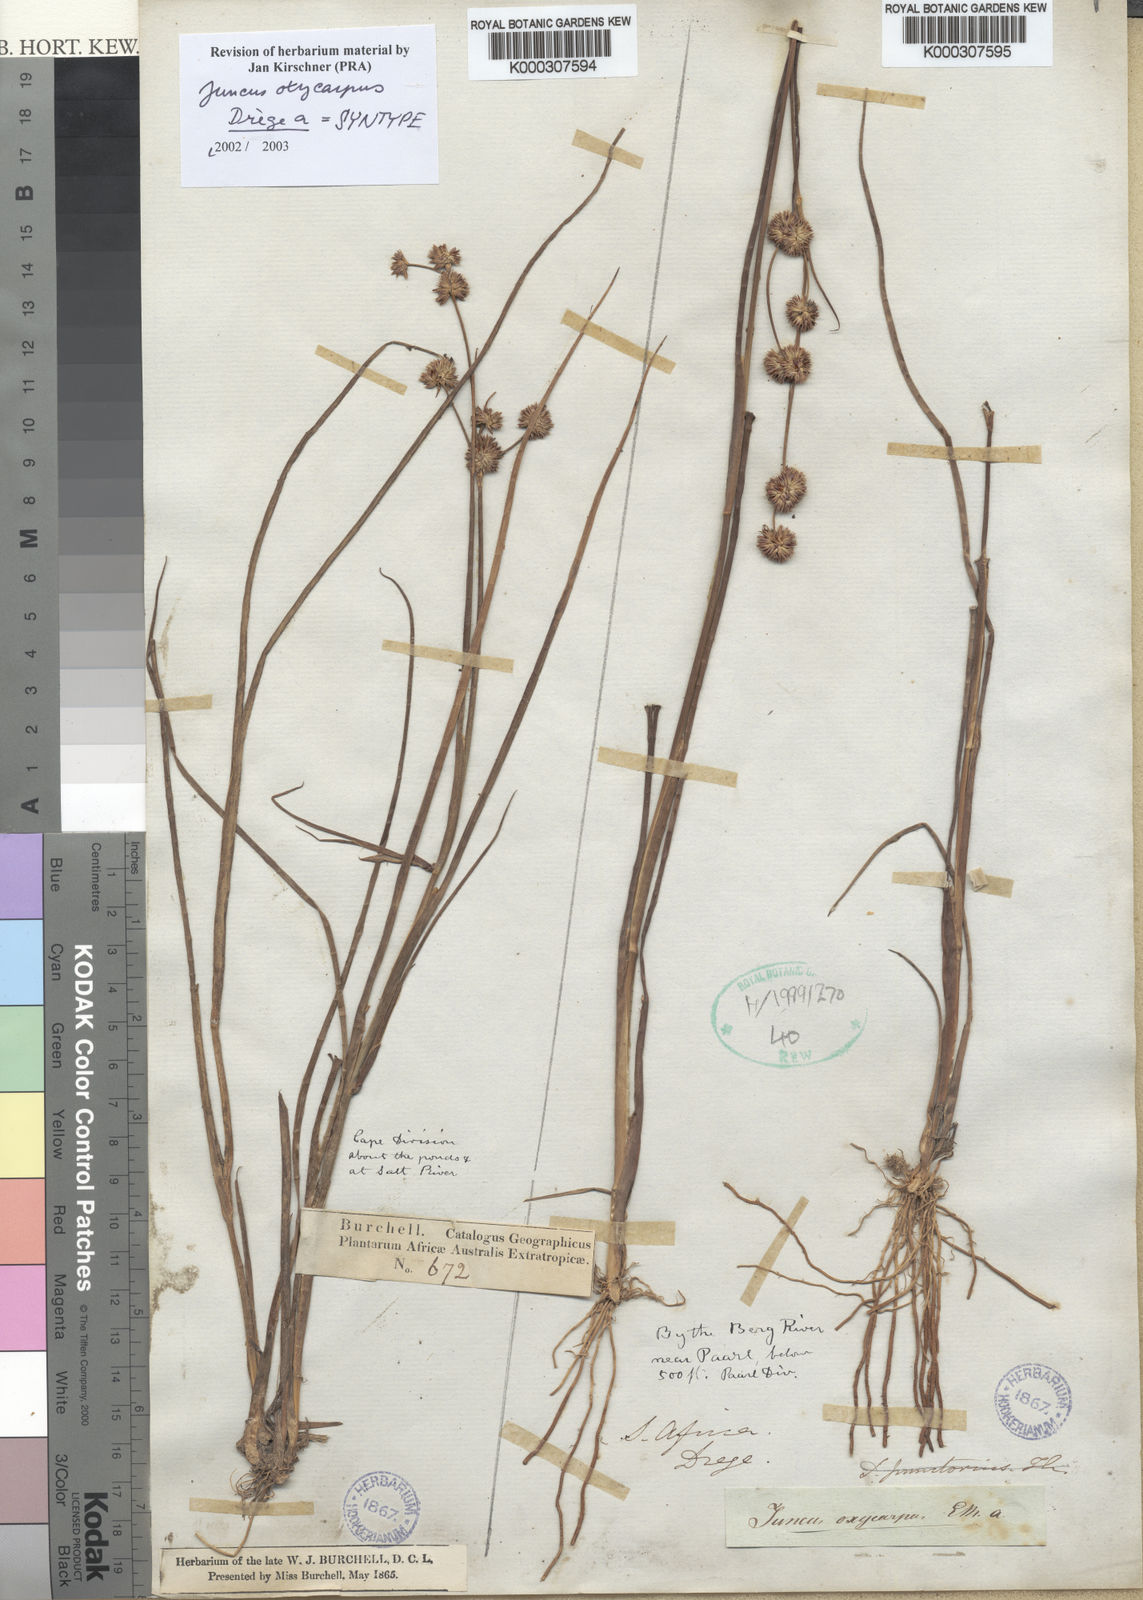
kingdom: Plantae
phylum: Tracheophyta
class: Liliopsida
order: Poales
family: Juncaceae
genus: Juncus
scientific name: Juncus oxycarpus
